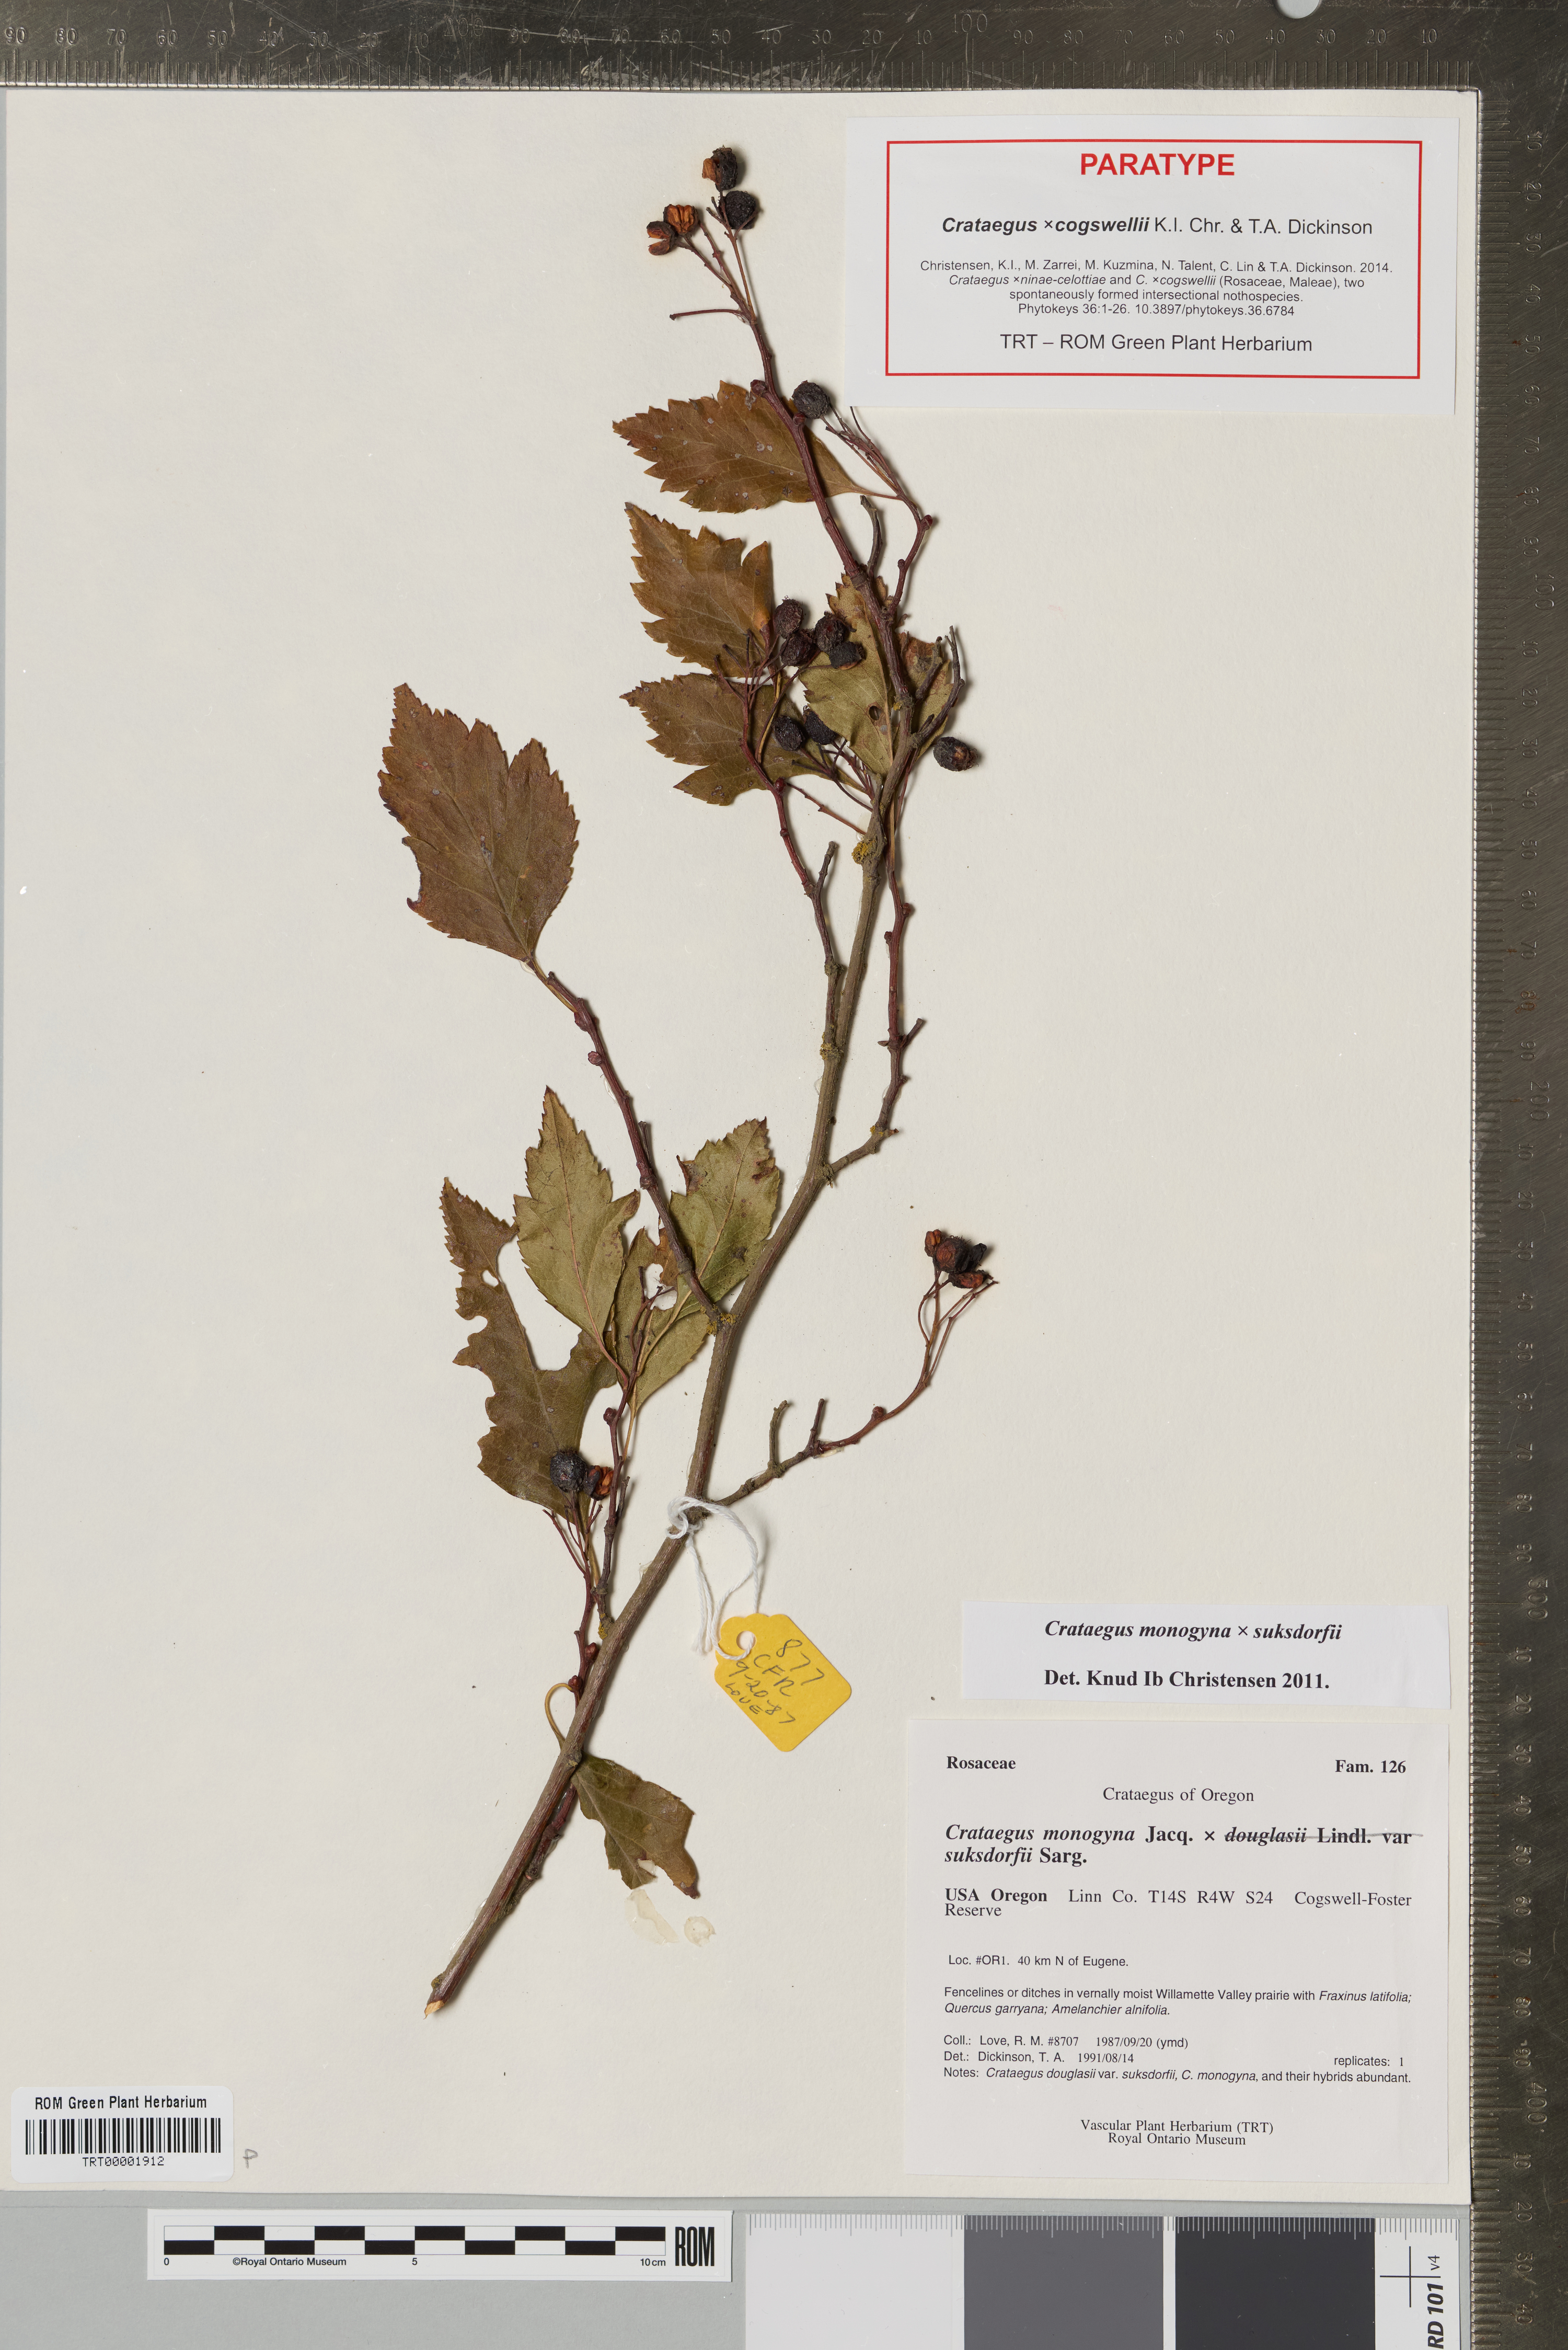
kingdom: Plantae
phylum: Tracheophyta
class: Magnoliopsida
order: Rosales
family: Rosaceae
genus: Crataegus
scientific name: Crataegus
